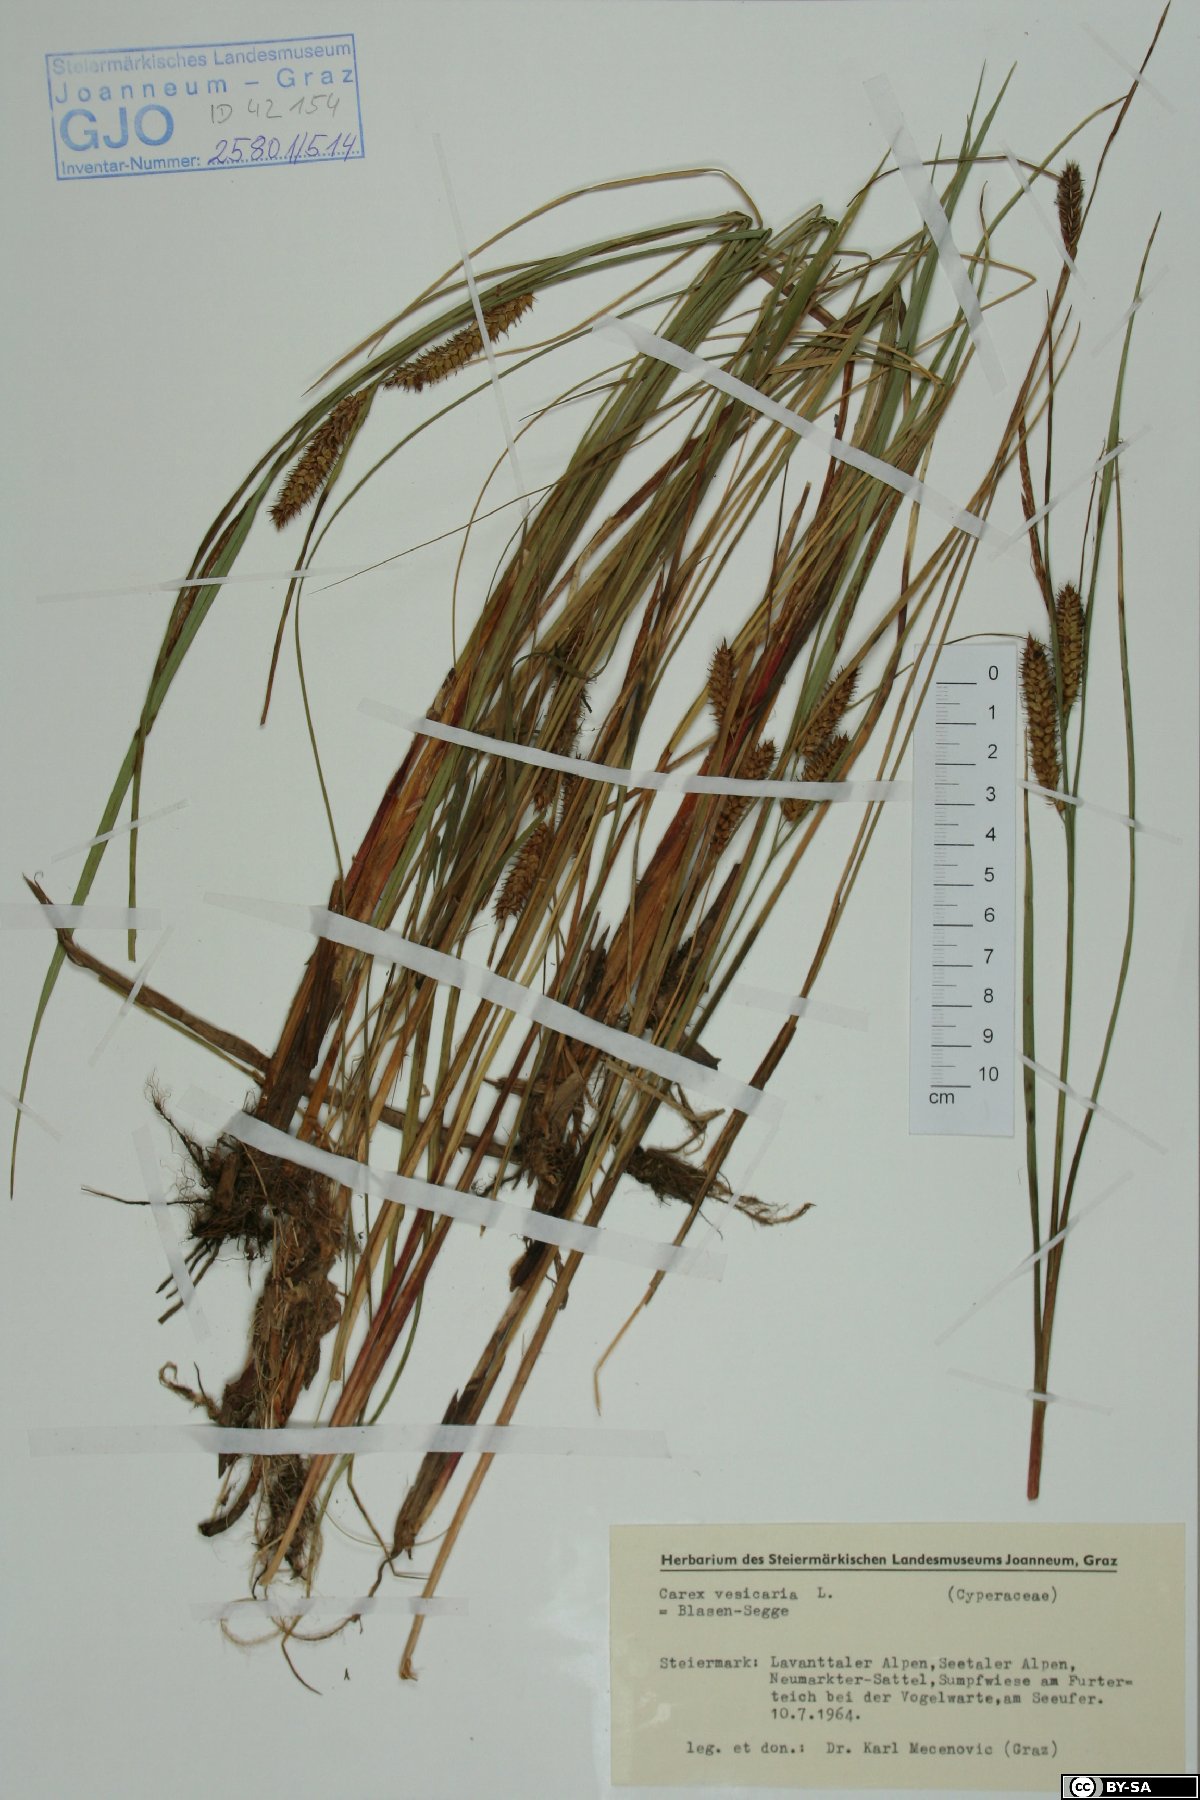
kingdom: Plantae
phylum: Tracheophyta
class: Liliopsida
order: Poales
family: Cyperaceae
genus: Carex
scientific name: Carex vesicaria
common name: Bladder-sedge
